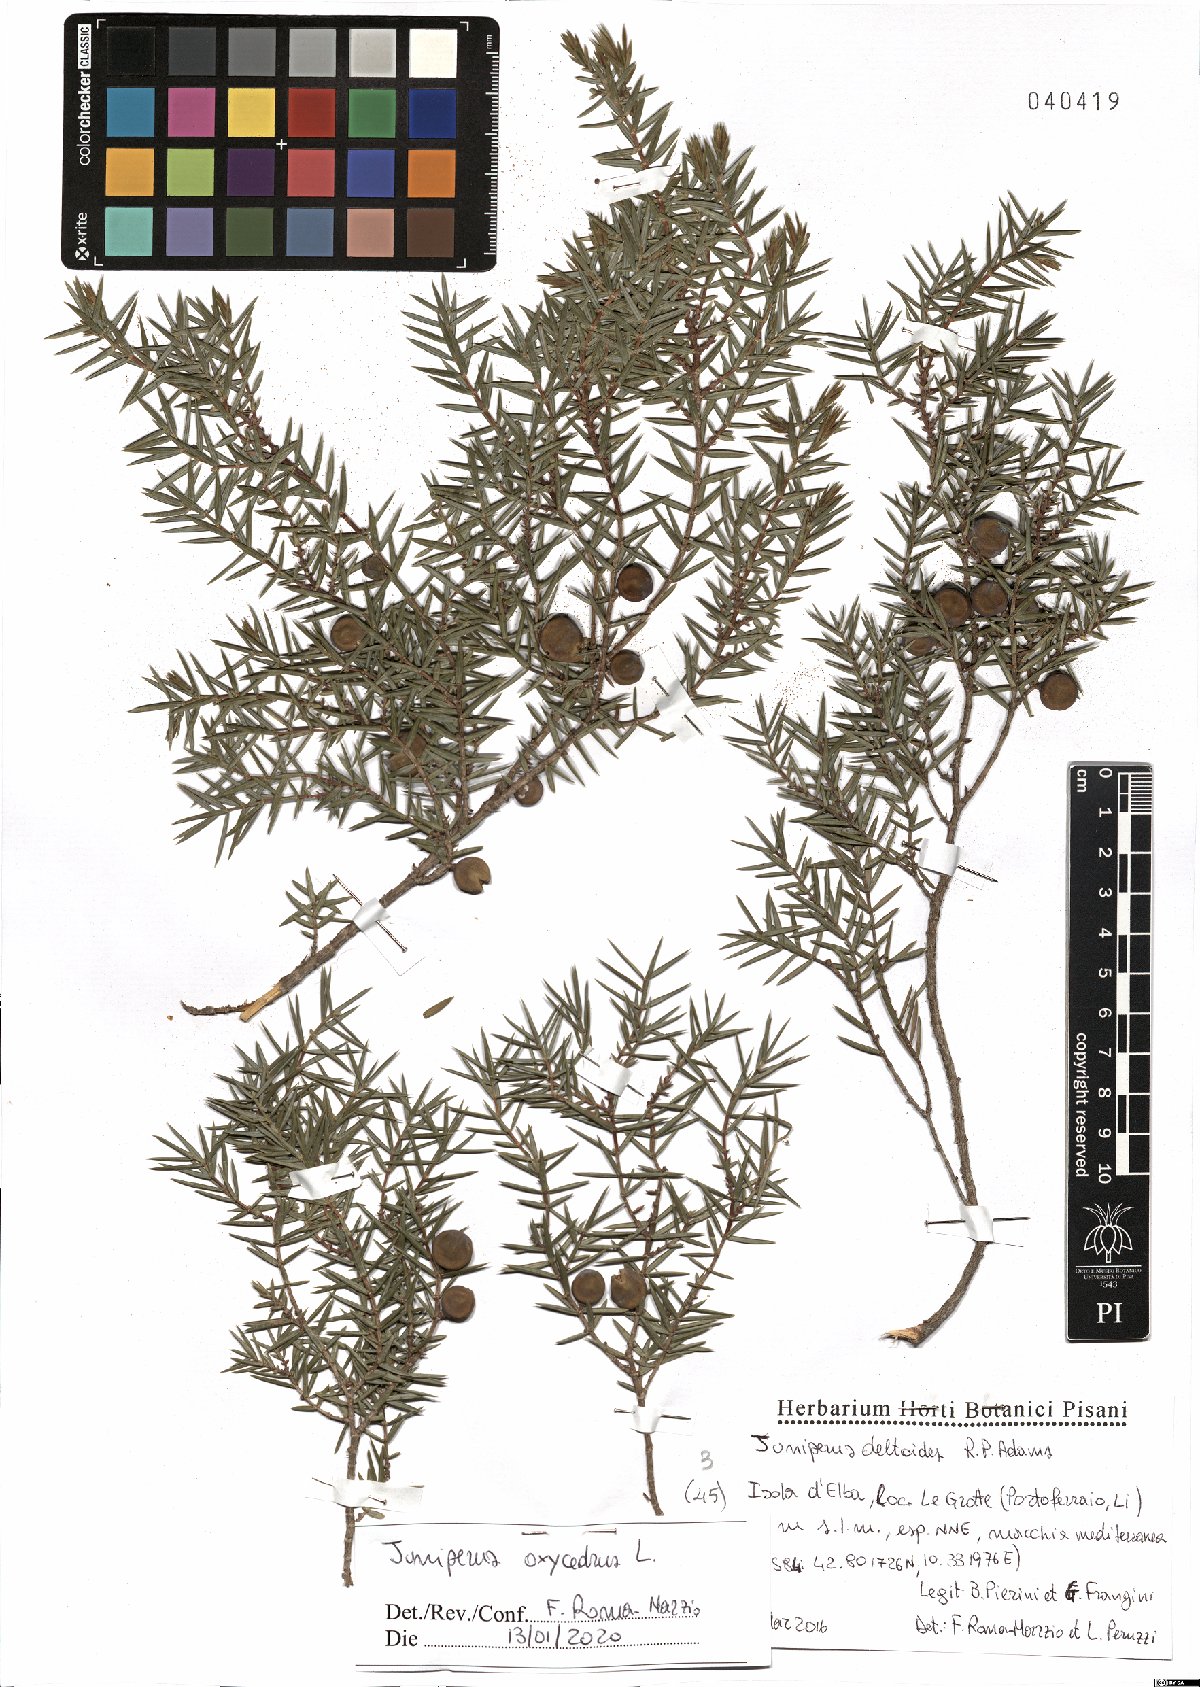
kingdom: Plantae
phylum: Tracheophyta
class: Pinopsida
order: Pinales
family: Cupressaceae
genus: Juniperus
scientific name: Juniperus oxycedrus
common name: Prickly juniper
